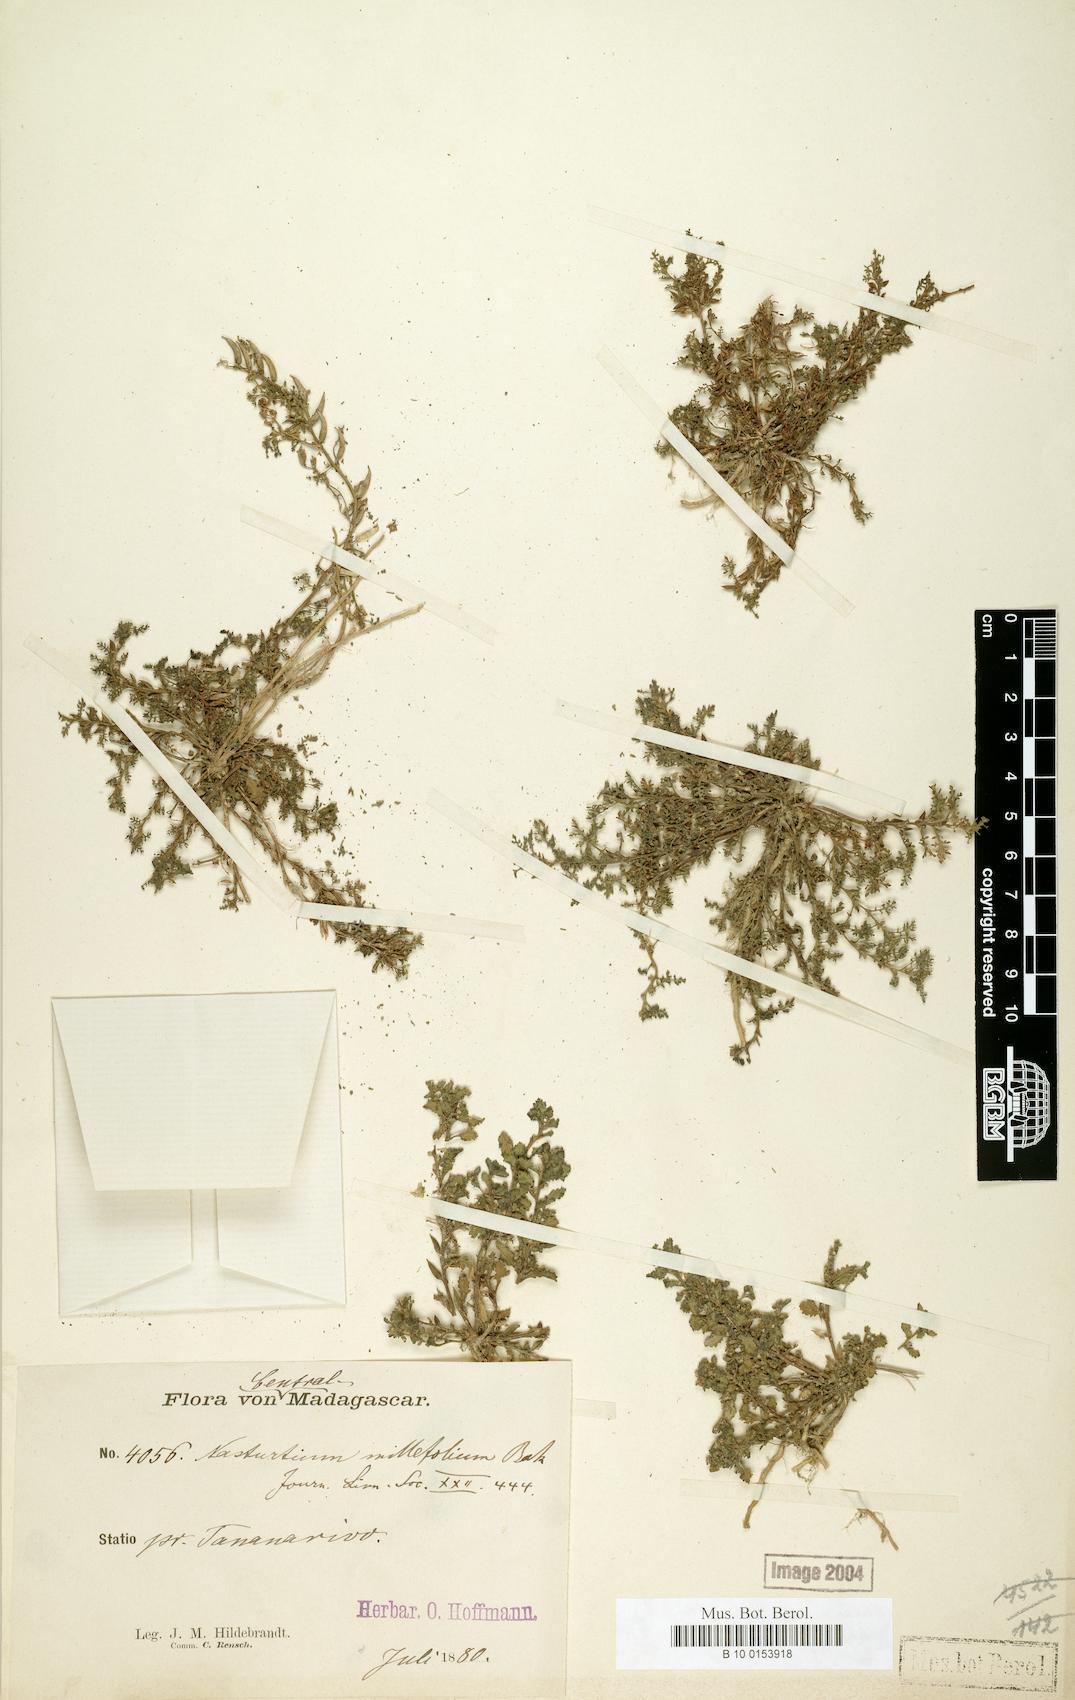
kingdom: Plantae
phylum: Tracheophyta
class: Magnoliopsida
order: Brassicales
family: Brassicaceae
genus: Rorippa
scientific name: Rorippa millefolia
